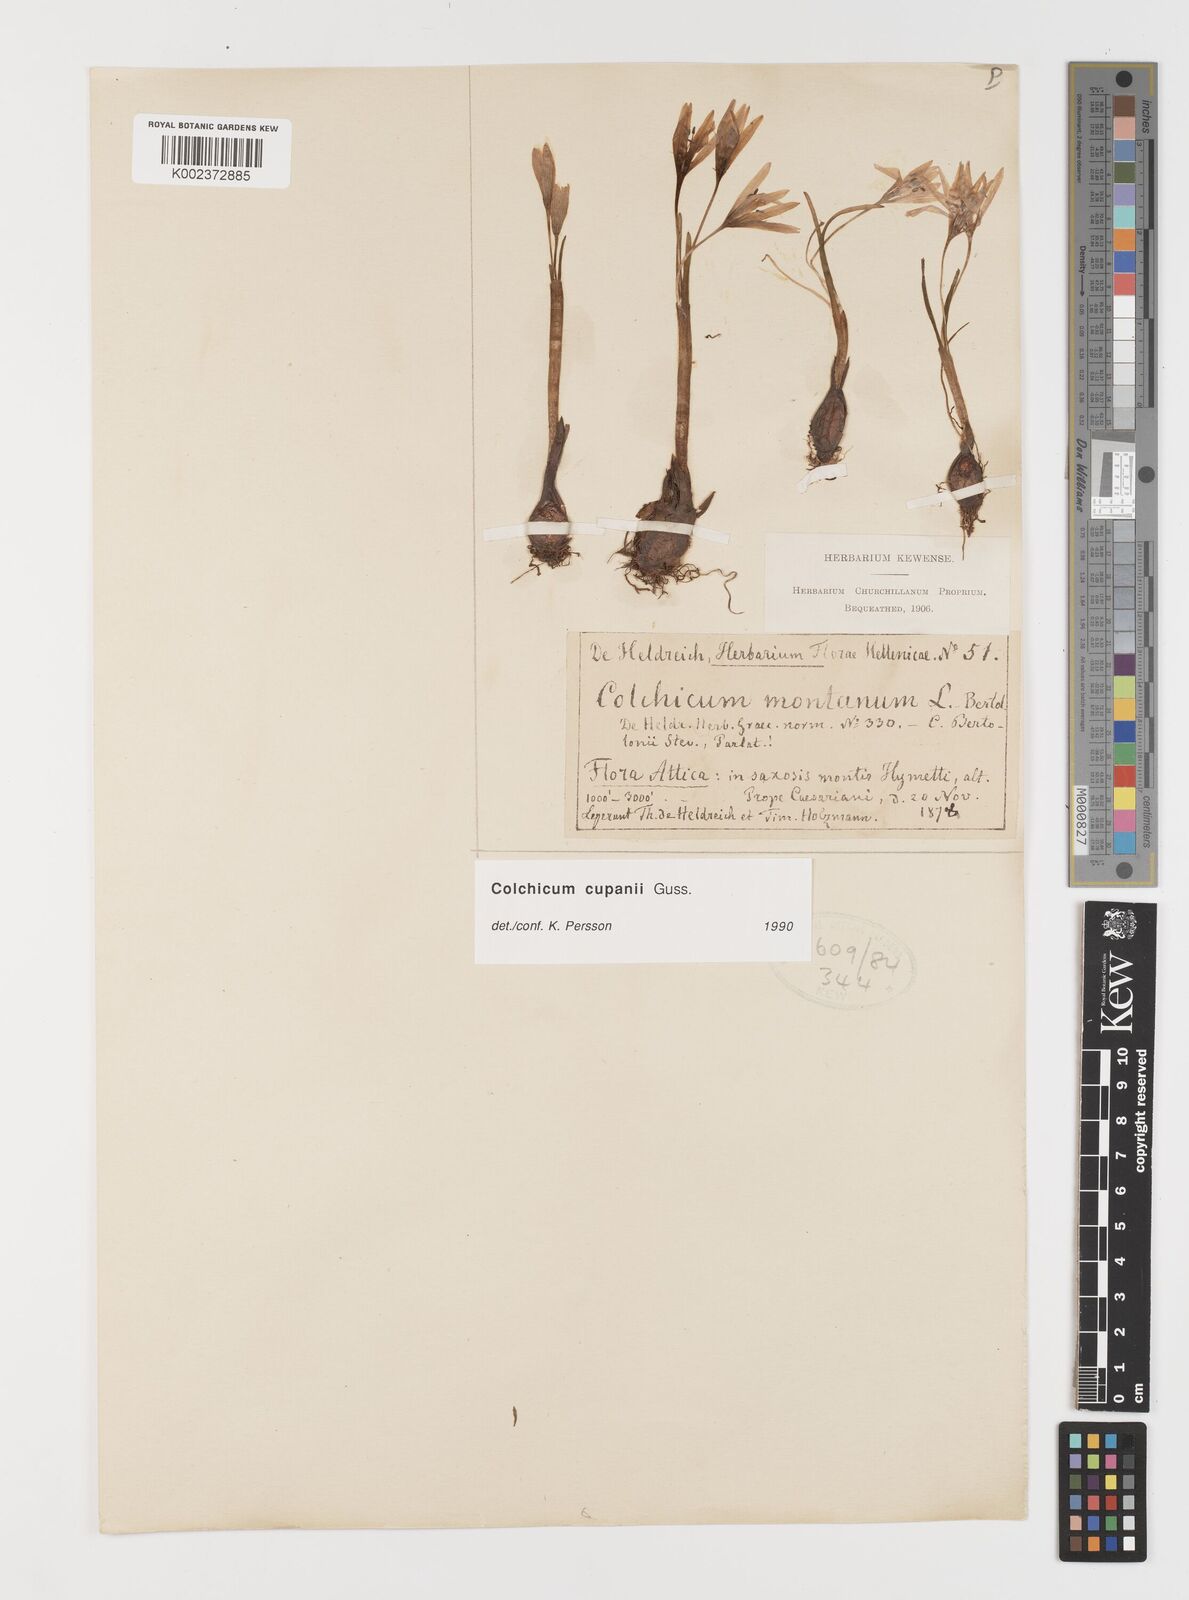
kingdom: Plantae
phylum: Tracheophyta
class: Liliopsida
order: Liliales
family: Colchicaceae
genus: Colchicum
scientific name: Colchicum cupanii
